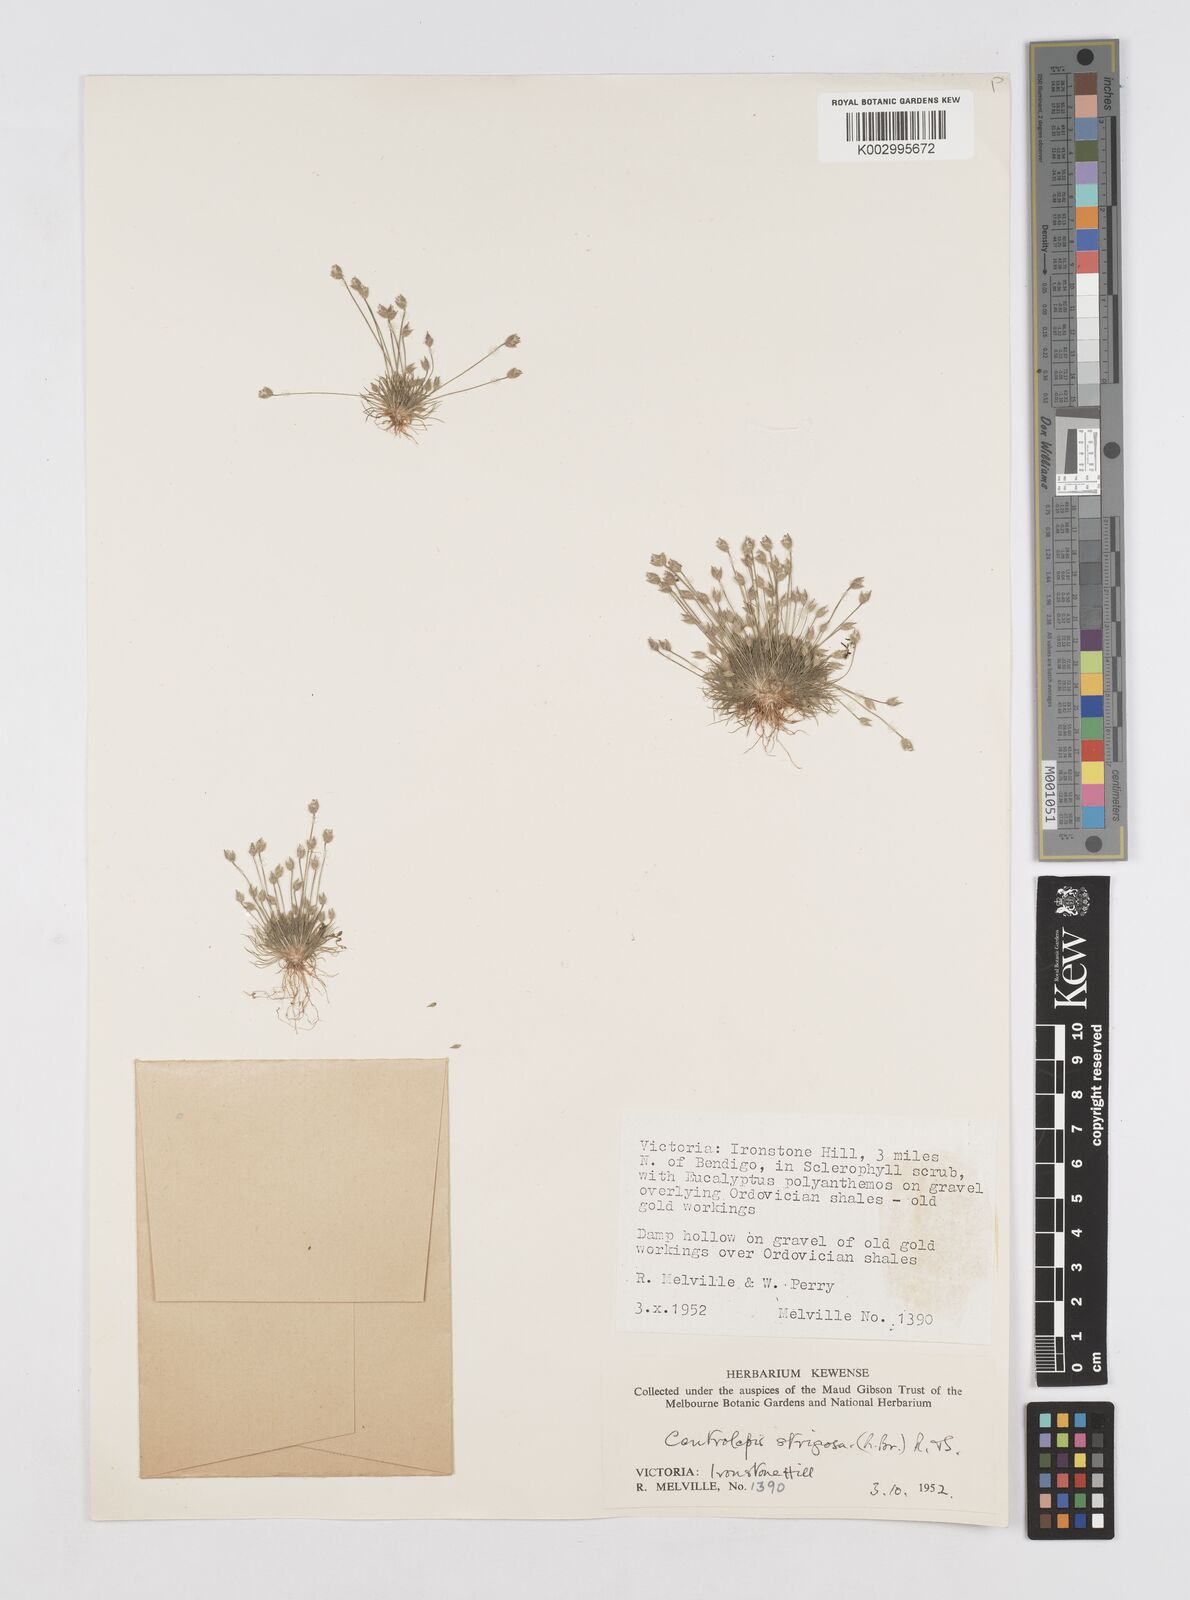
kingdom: Plantae
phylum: Tracheophyta
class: Liliopsida
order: Poales
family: Restionaceae
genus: Centrolepis
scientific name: Centrolepis strigosa
